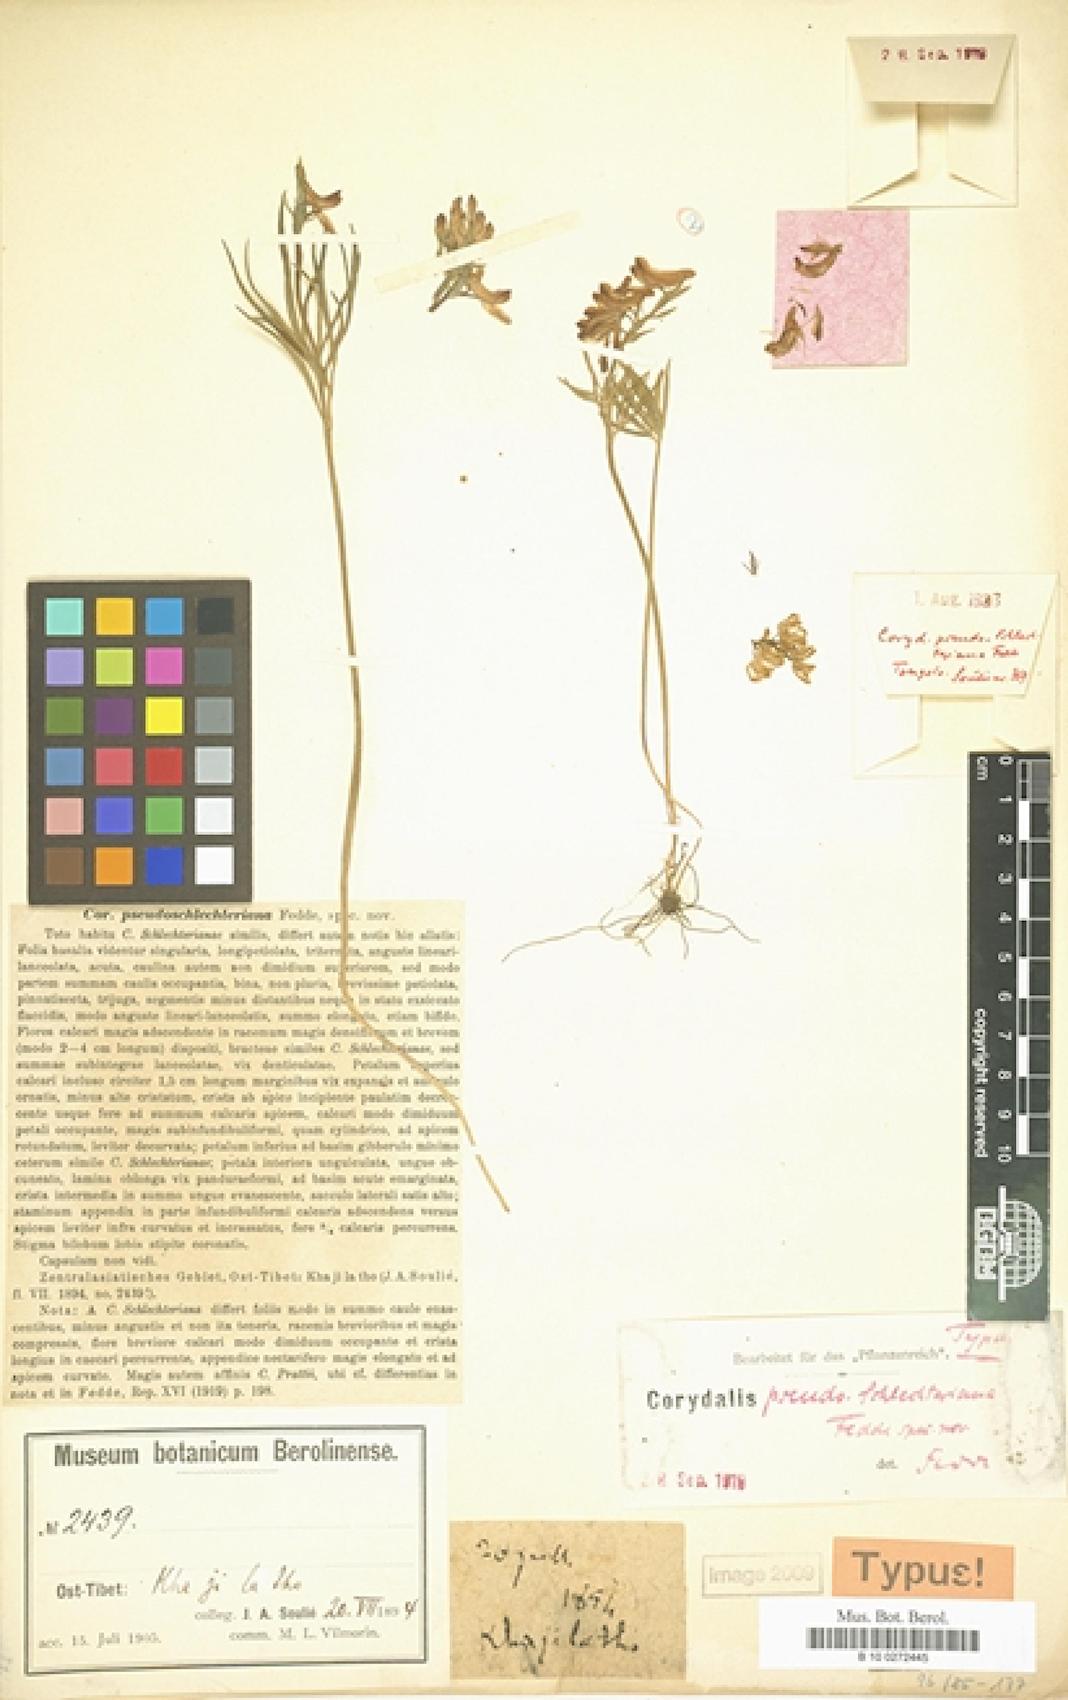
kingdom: Plantae
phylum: Tracheophyta
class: Magnoliopsida
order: Ranunculales
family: Papaveraceae
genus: Corydalis
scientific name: Corydalis eugeniae
